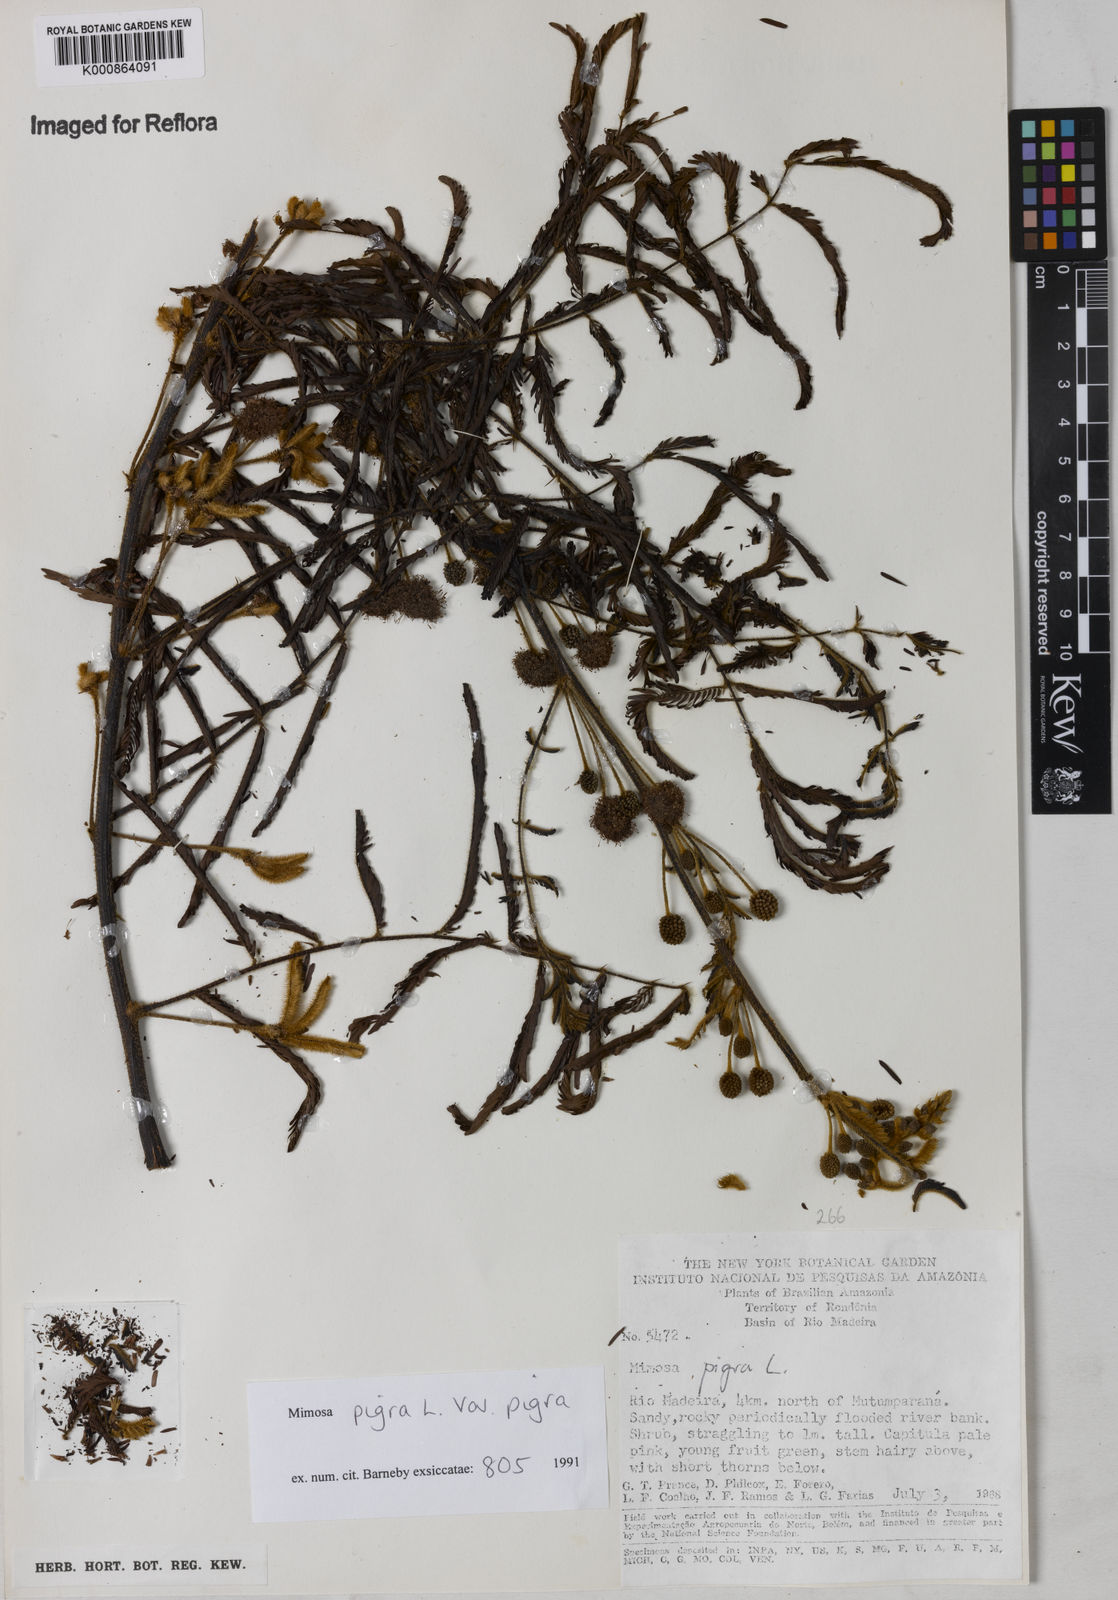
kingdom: Plantae
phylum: Tracheophyta
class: Magnoliopsida
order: Fabales
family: Fabaceae
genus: Mimosa
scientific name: Mimosa pigra
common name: Black mimosa
